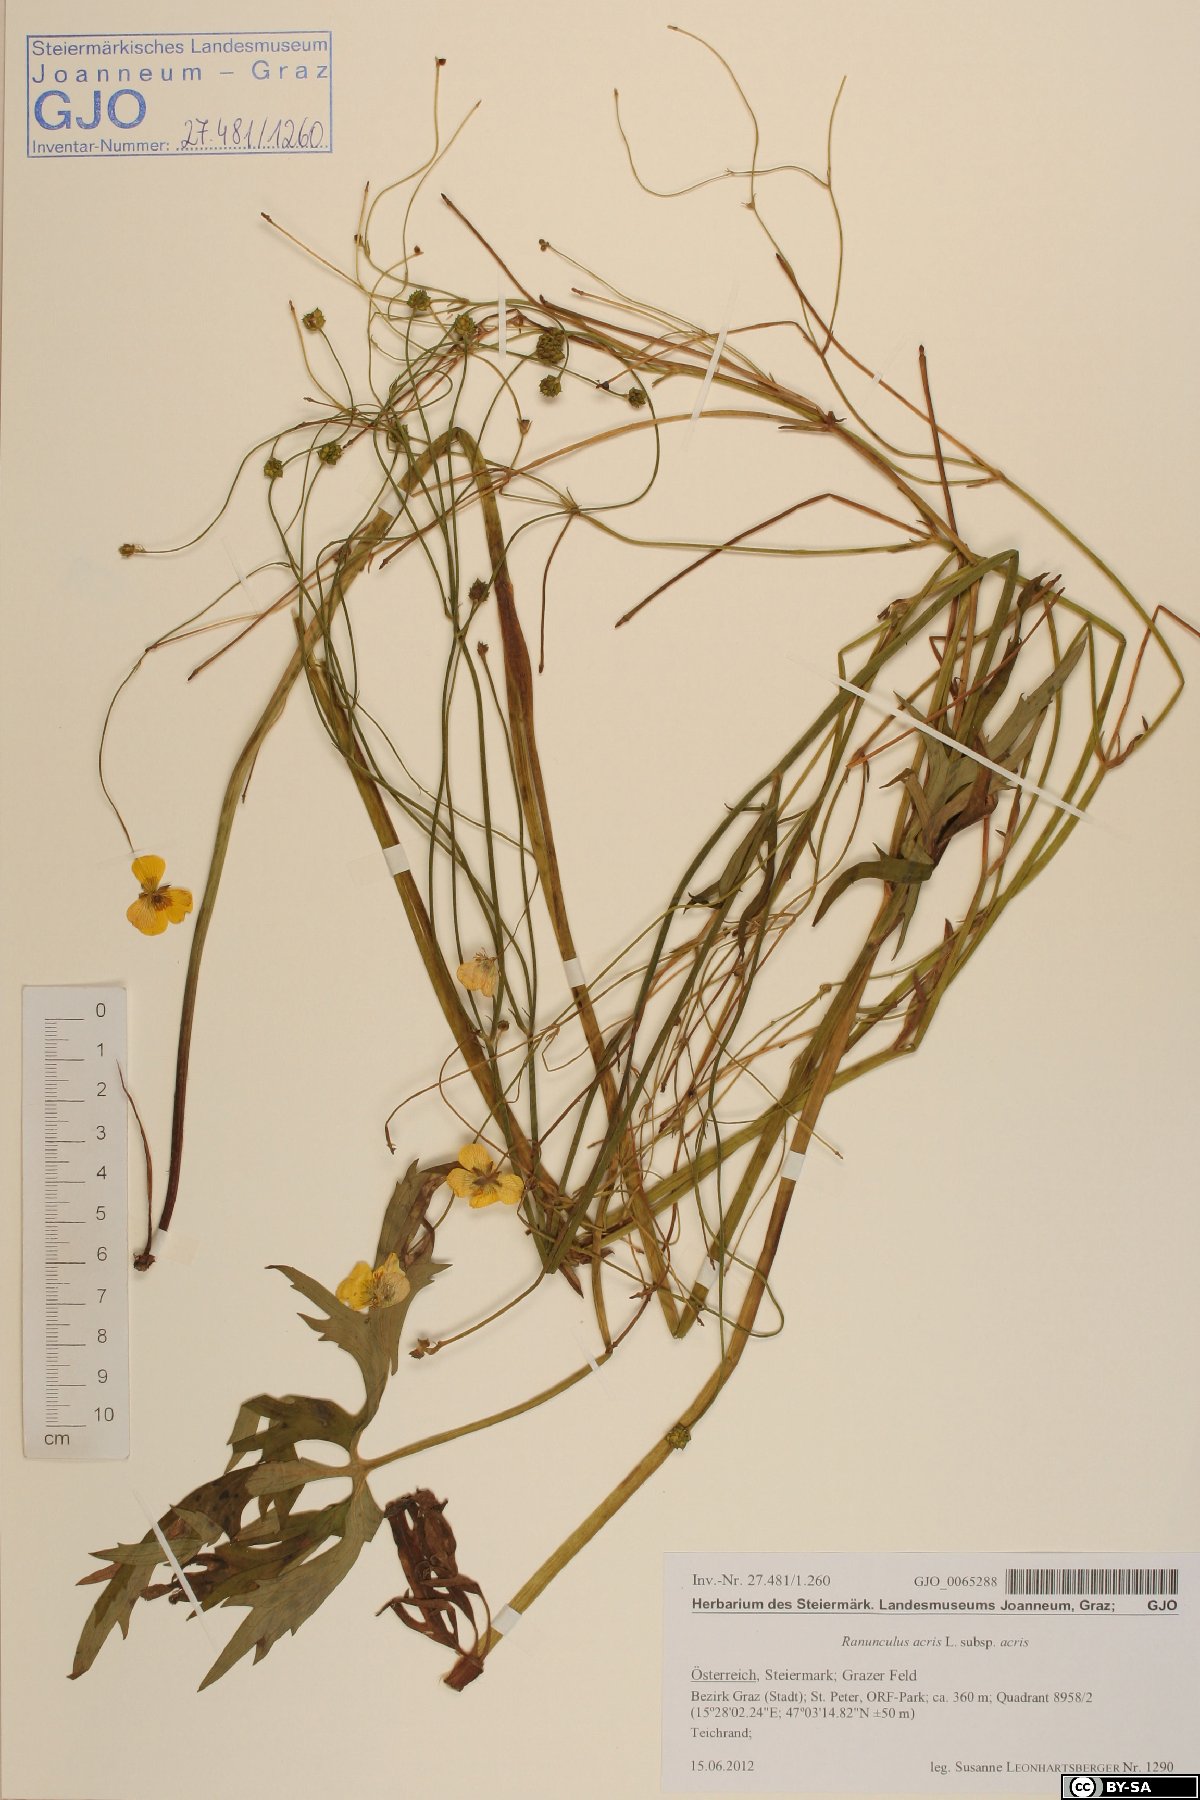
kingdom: Plantae
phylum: Tracheophyta
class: Magnoliopsida
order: Ranunculales
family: Ranunculaceae
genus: Ranunculus
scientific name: Ranunculus acris
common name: Meadow buttercup
